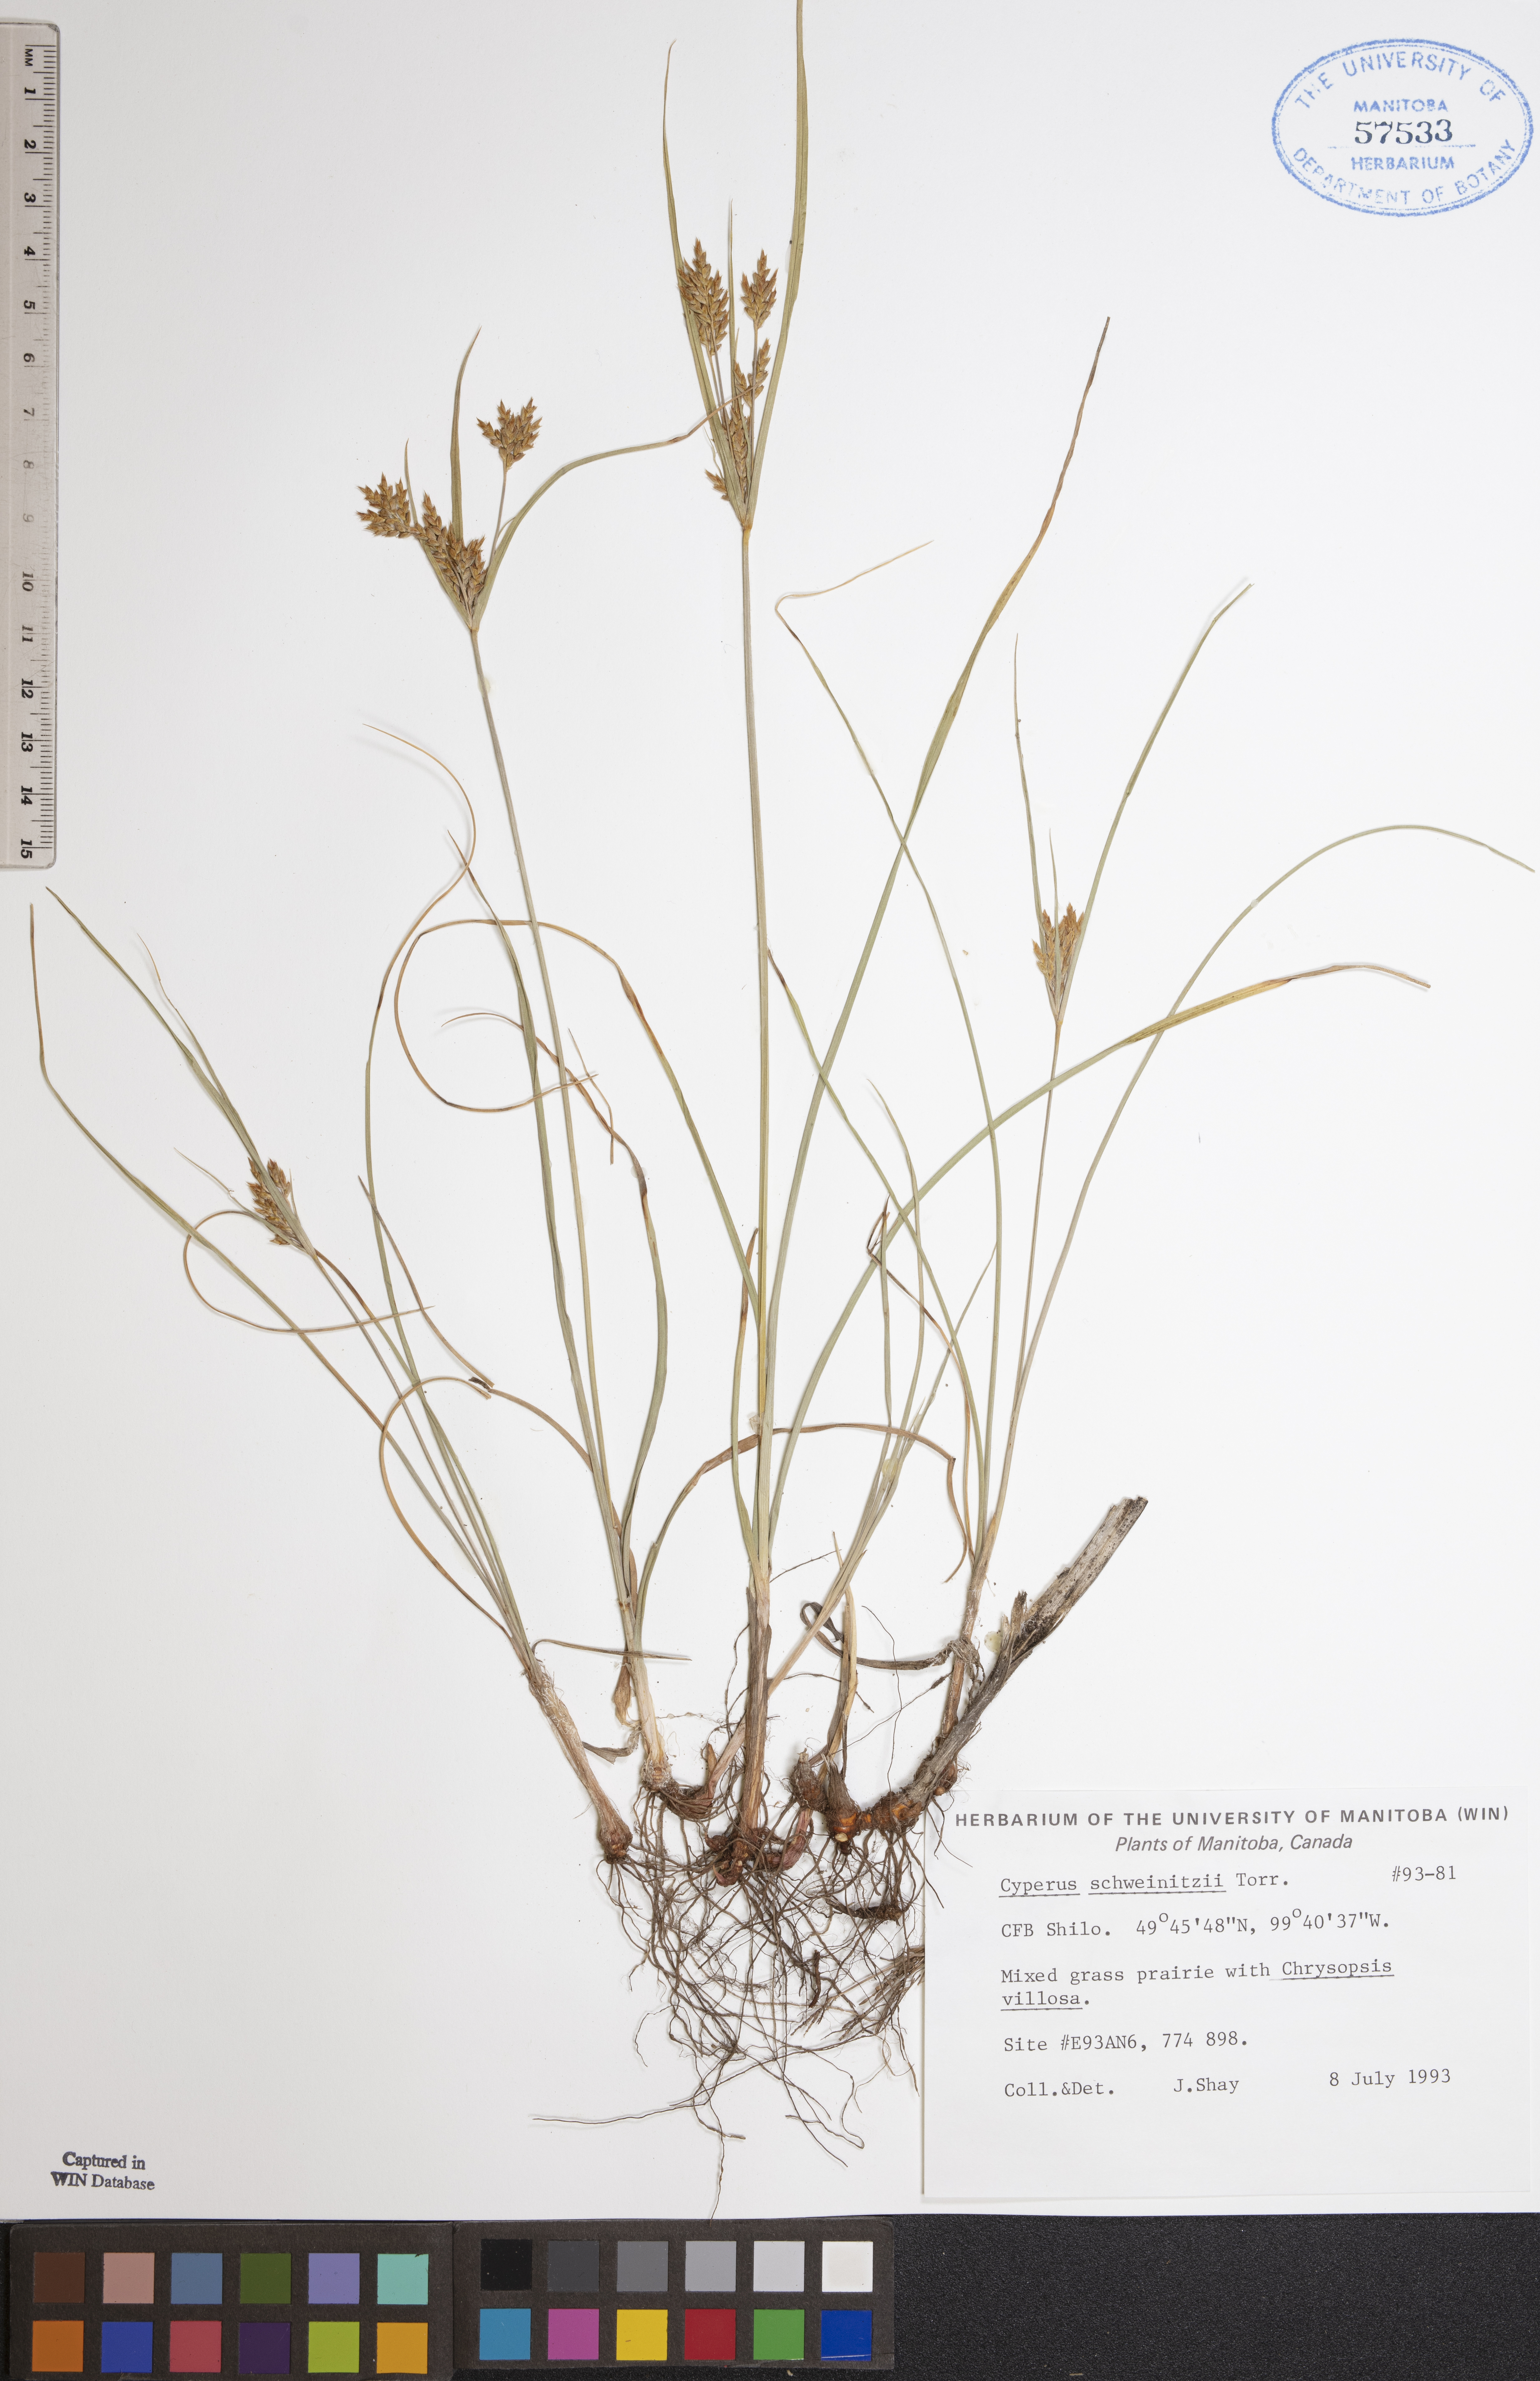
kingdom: Plantae
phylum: Tracheophyta
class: Liliopsida
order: Poales
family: Cyperaceae
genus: Cyperus
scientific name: Cyperus schweinitzii
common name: Schweinitz's cyperus
